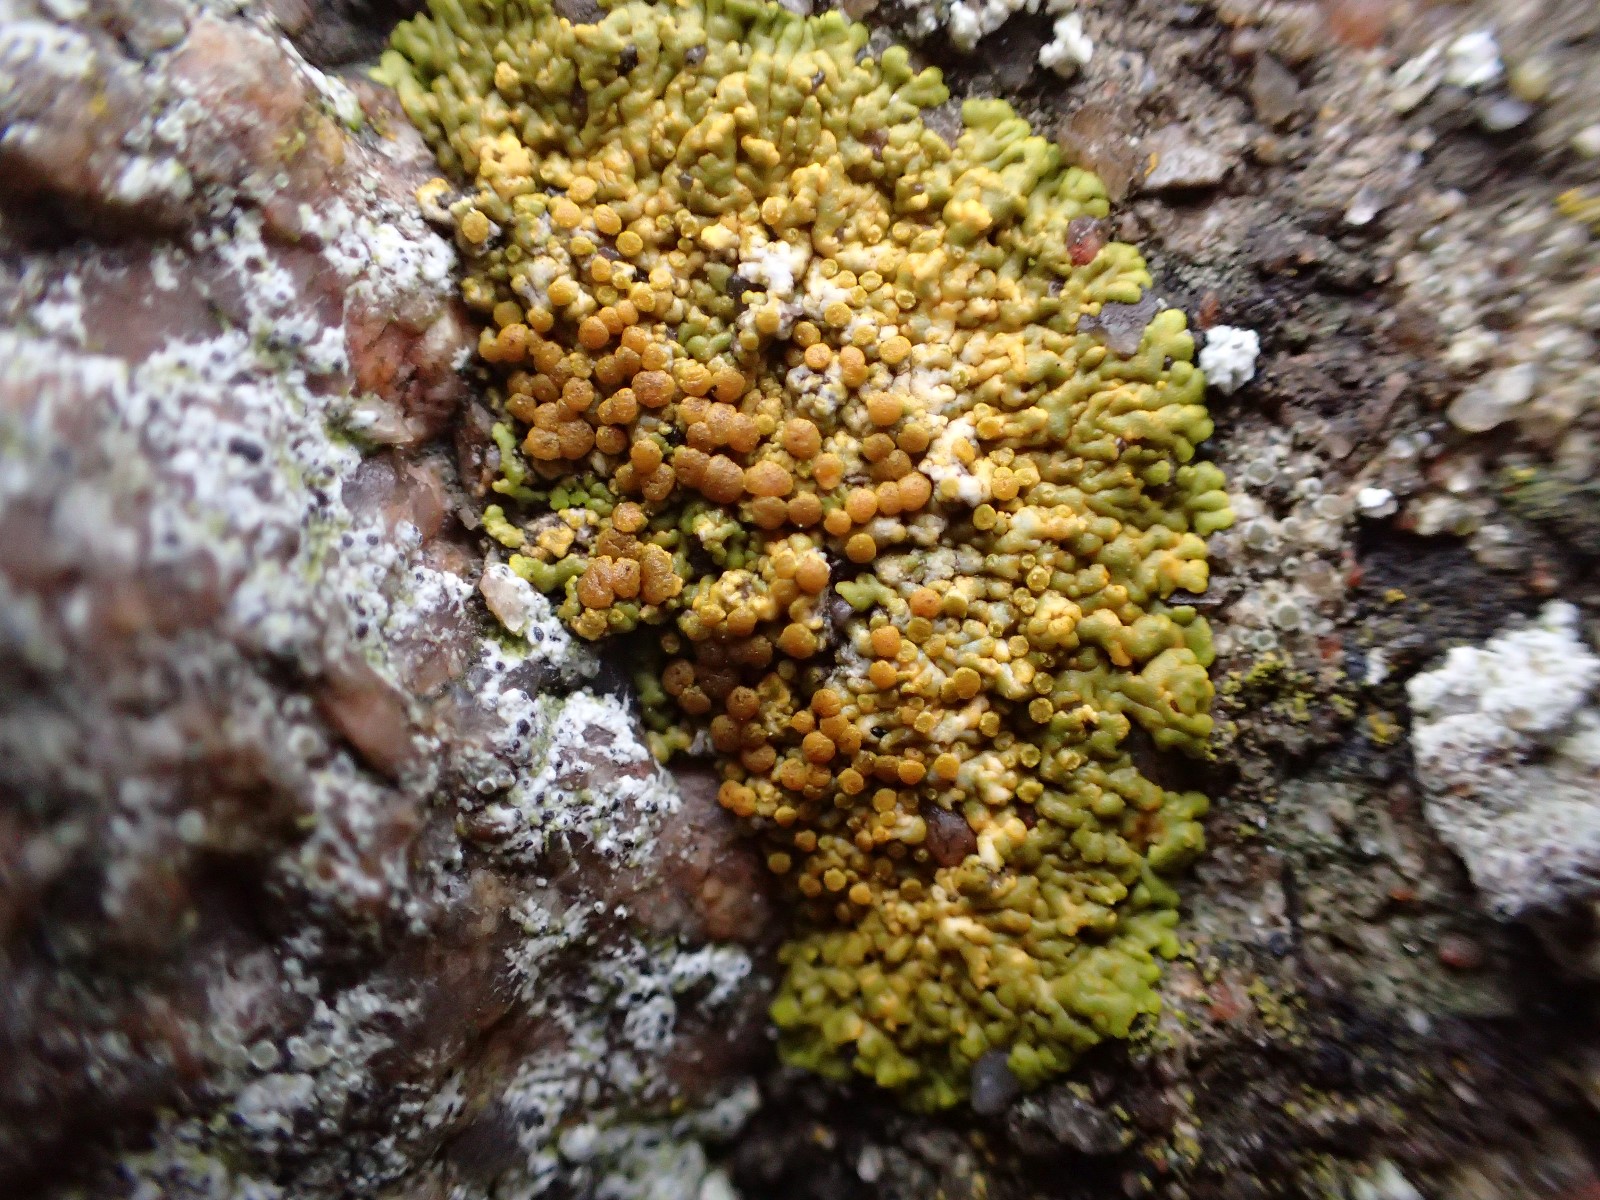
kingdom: Fungi
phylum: Ascomycota
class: Lecanoromycetes
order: Teloschistales
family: Teloschistaceae
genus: Variospora
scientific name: Variospora flavescens
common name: kalk-orangelav
